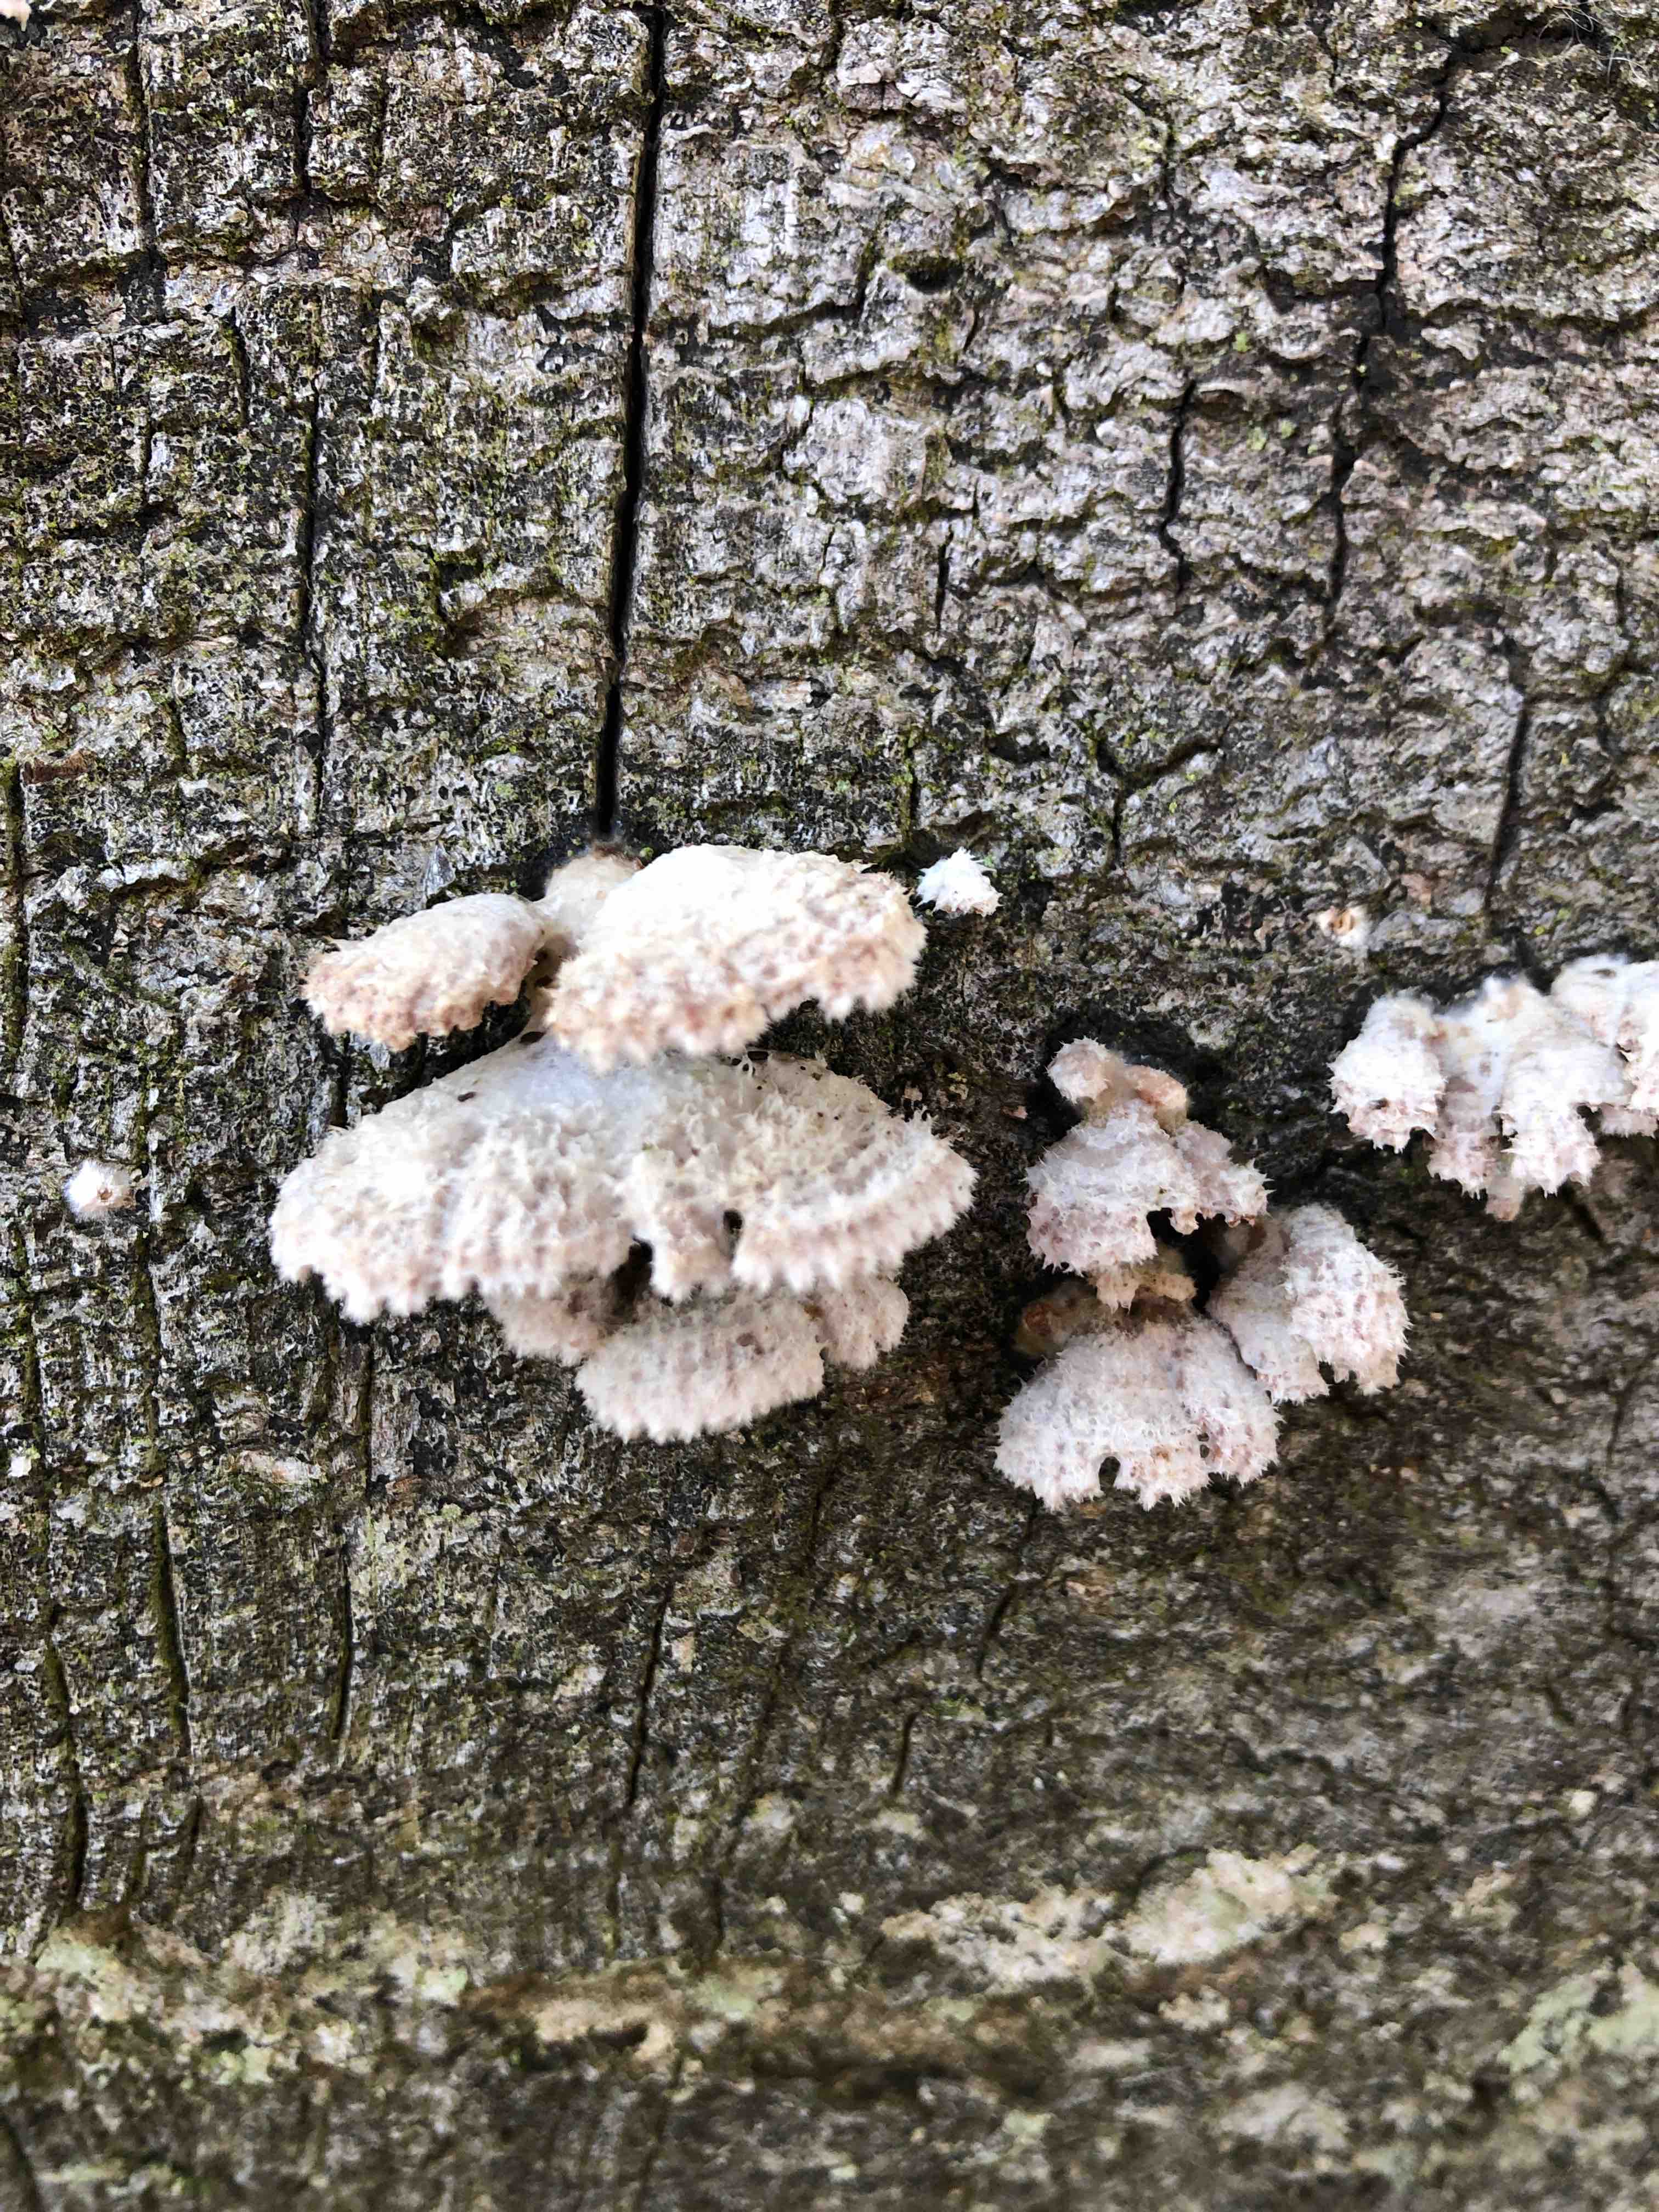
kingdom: Fungi
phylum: Basidiomycota
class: Agaricomycetes
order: Agaricales
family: Schizophyllaceae
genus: Schizophyllum
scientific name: Schizophyllum commune
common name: kløvblad
